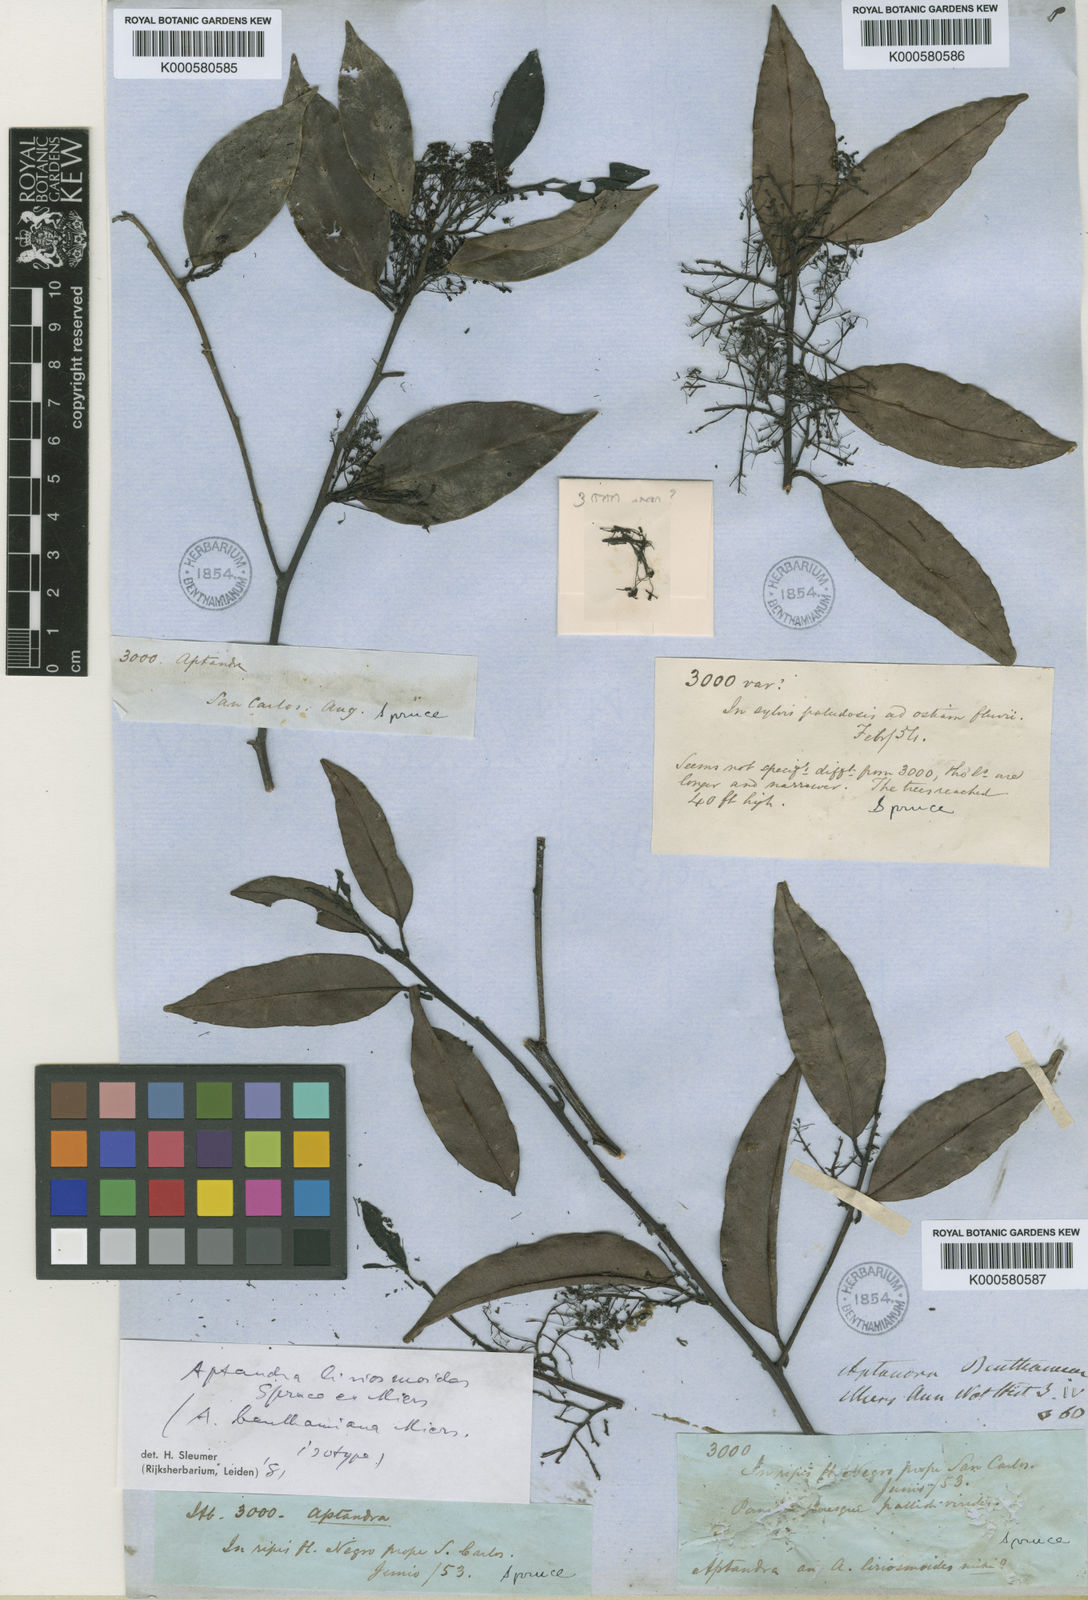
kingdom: Plantae
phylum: Tracheophyta
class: Magnoliopsida
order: Santalales
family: Aptandraceae
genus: Aptandra
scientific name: Aptandra liriosmoides
